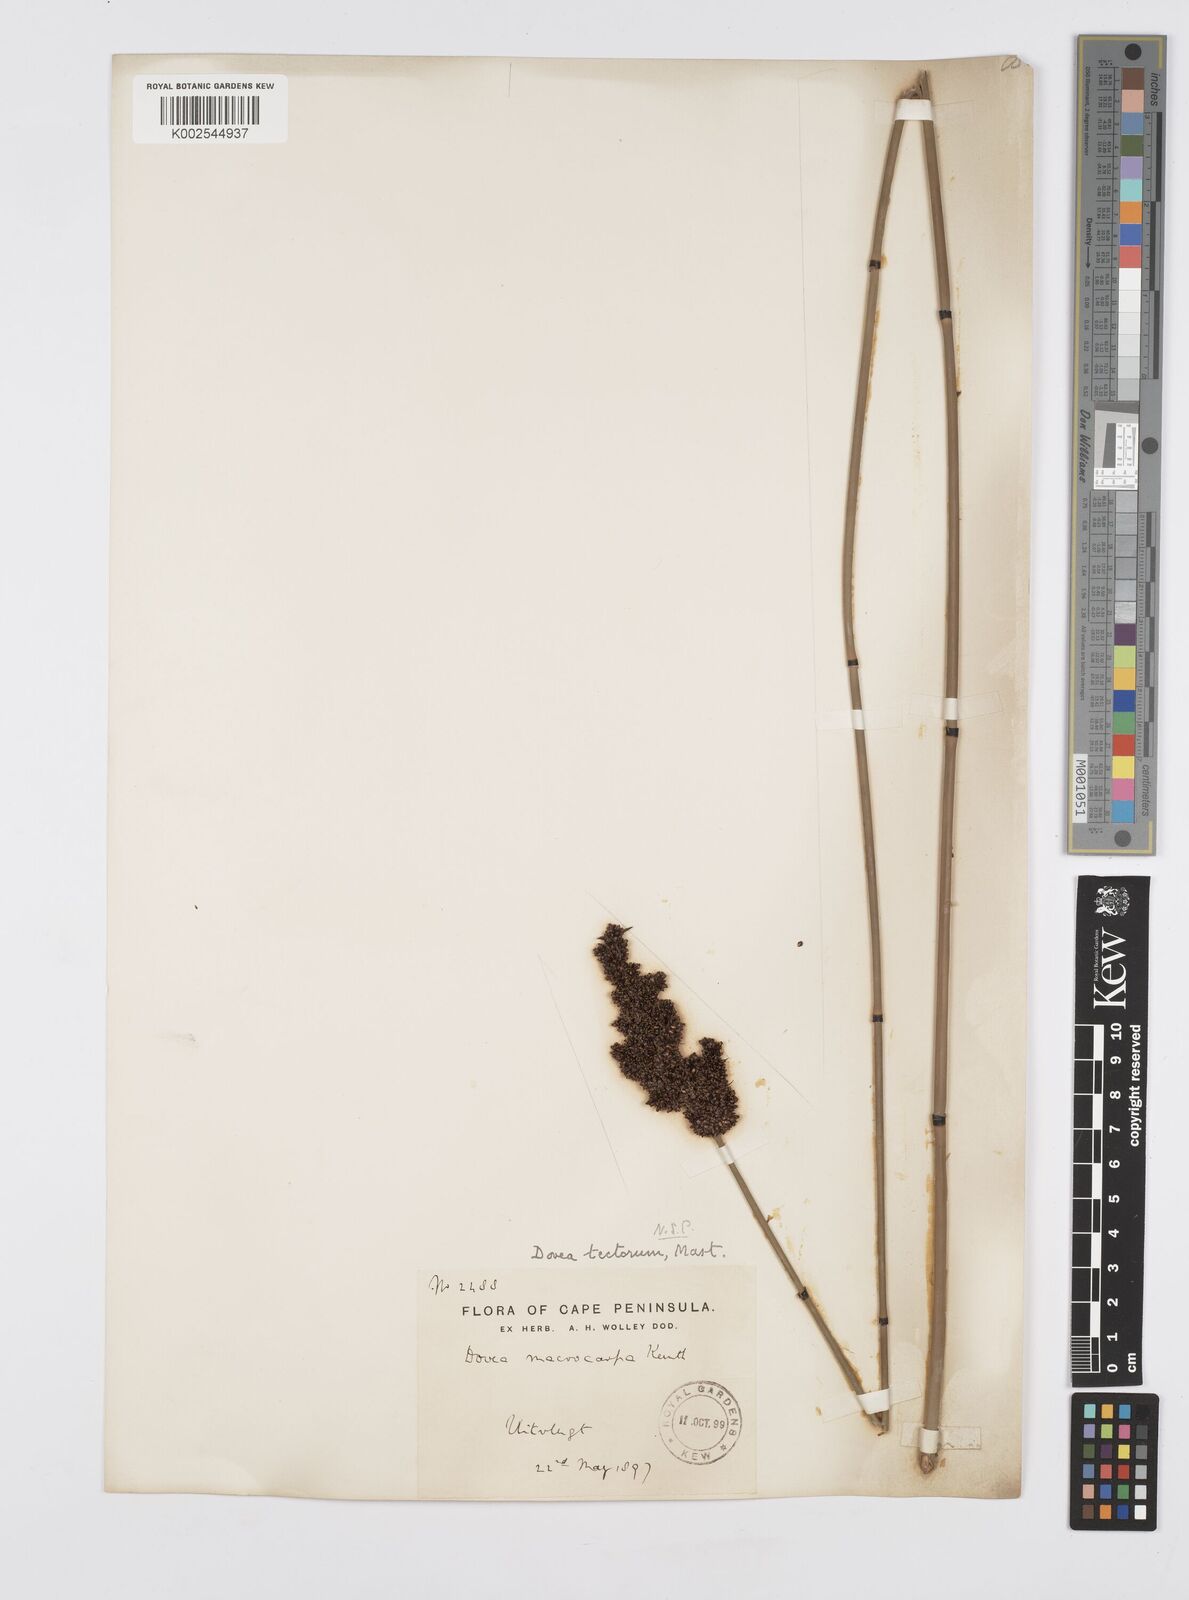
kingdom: Plantae
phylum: Tracheophyta
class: Liliopsida
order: Poales
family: Restionaceae
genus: Elegia
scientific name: Elegia tectorum
